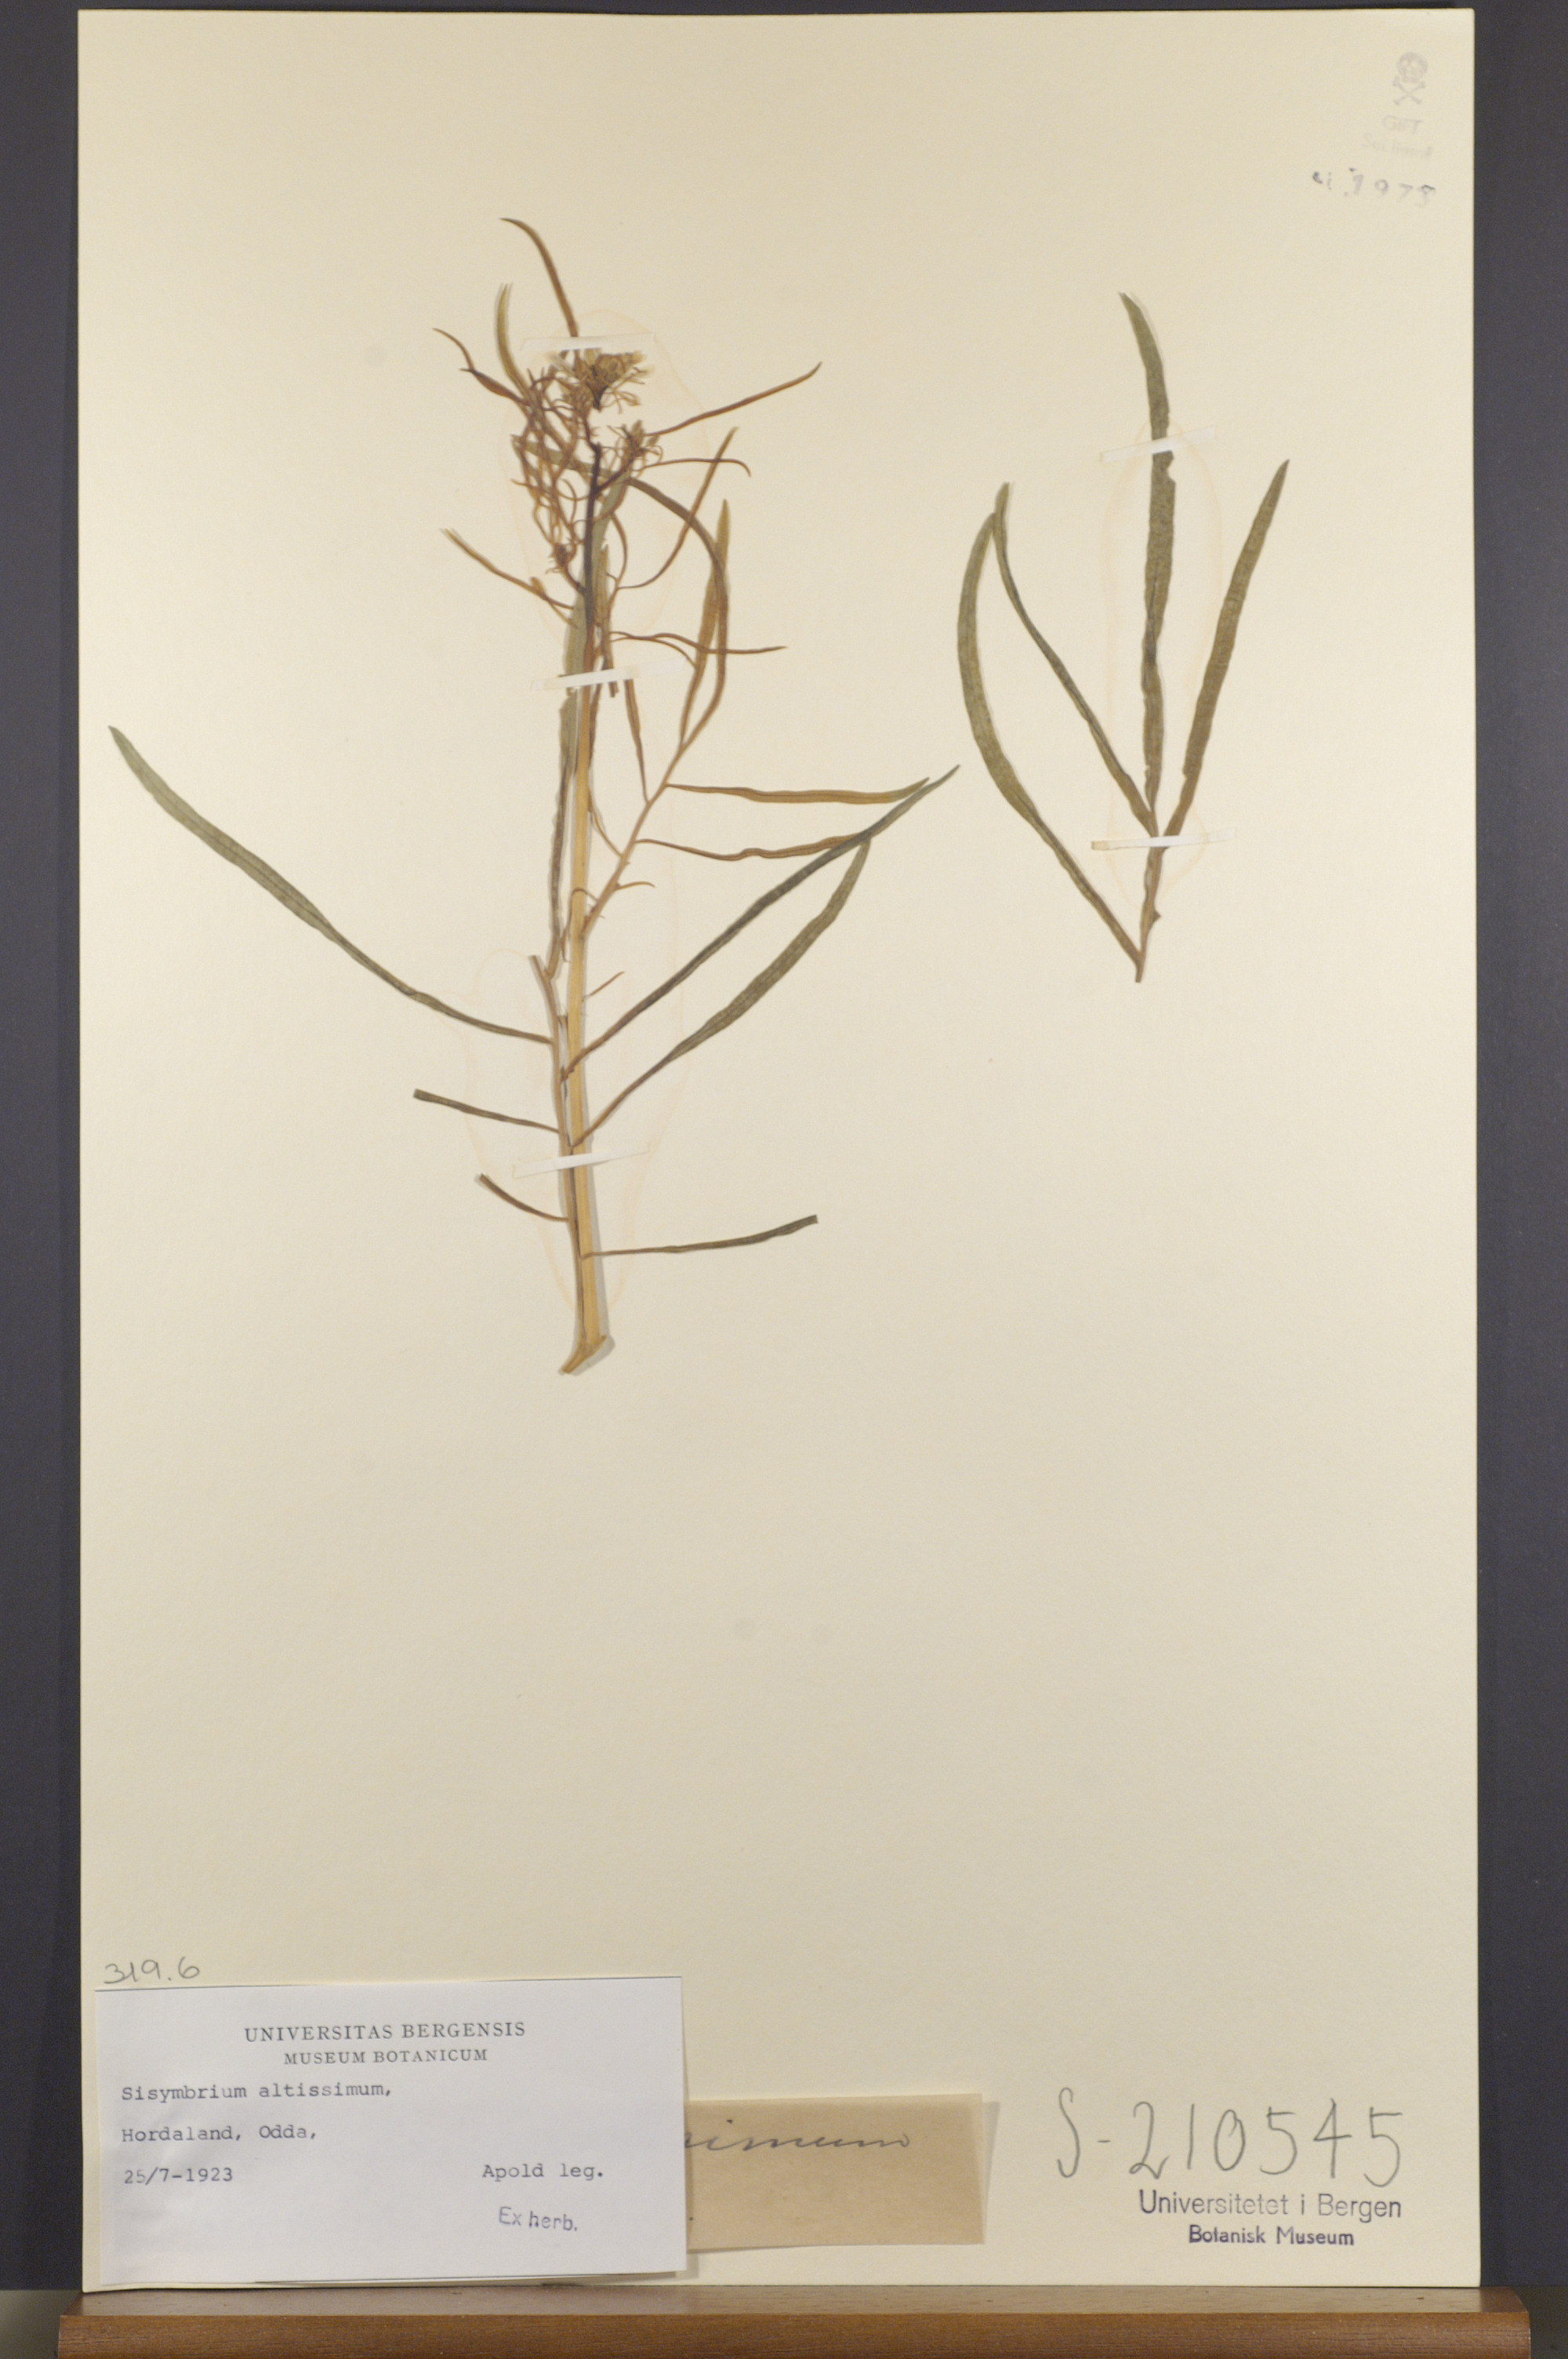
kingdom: Plantae
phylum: Tracheophyta
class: Magnoliopsida
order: Brassicales
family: Brassicaceae
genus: Sisymbrium
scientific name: Sisymbrium altissimum
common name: Tall rocket
